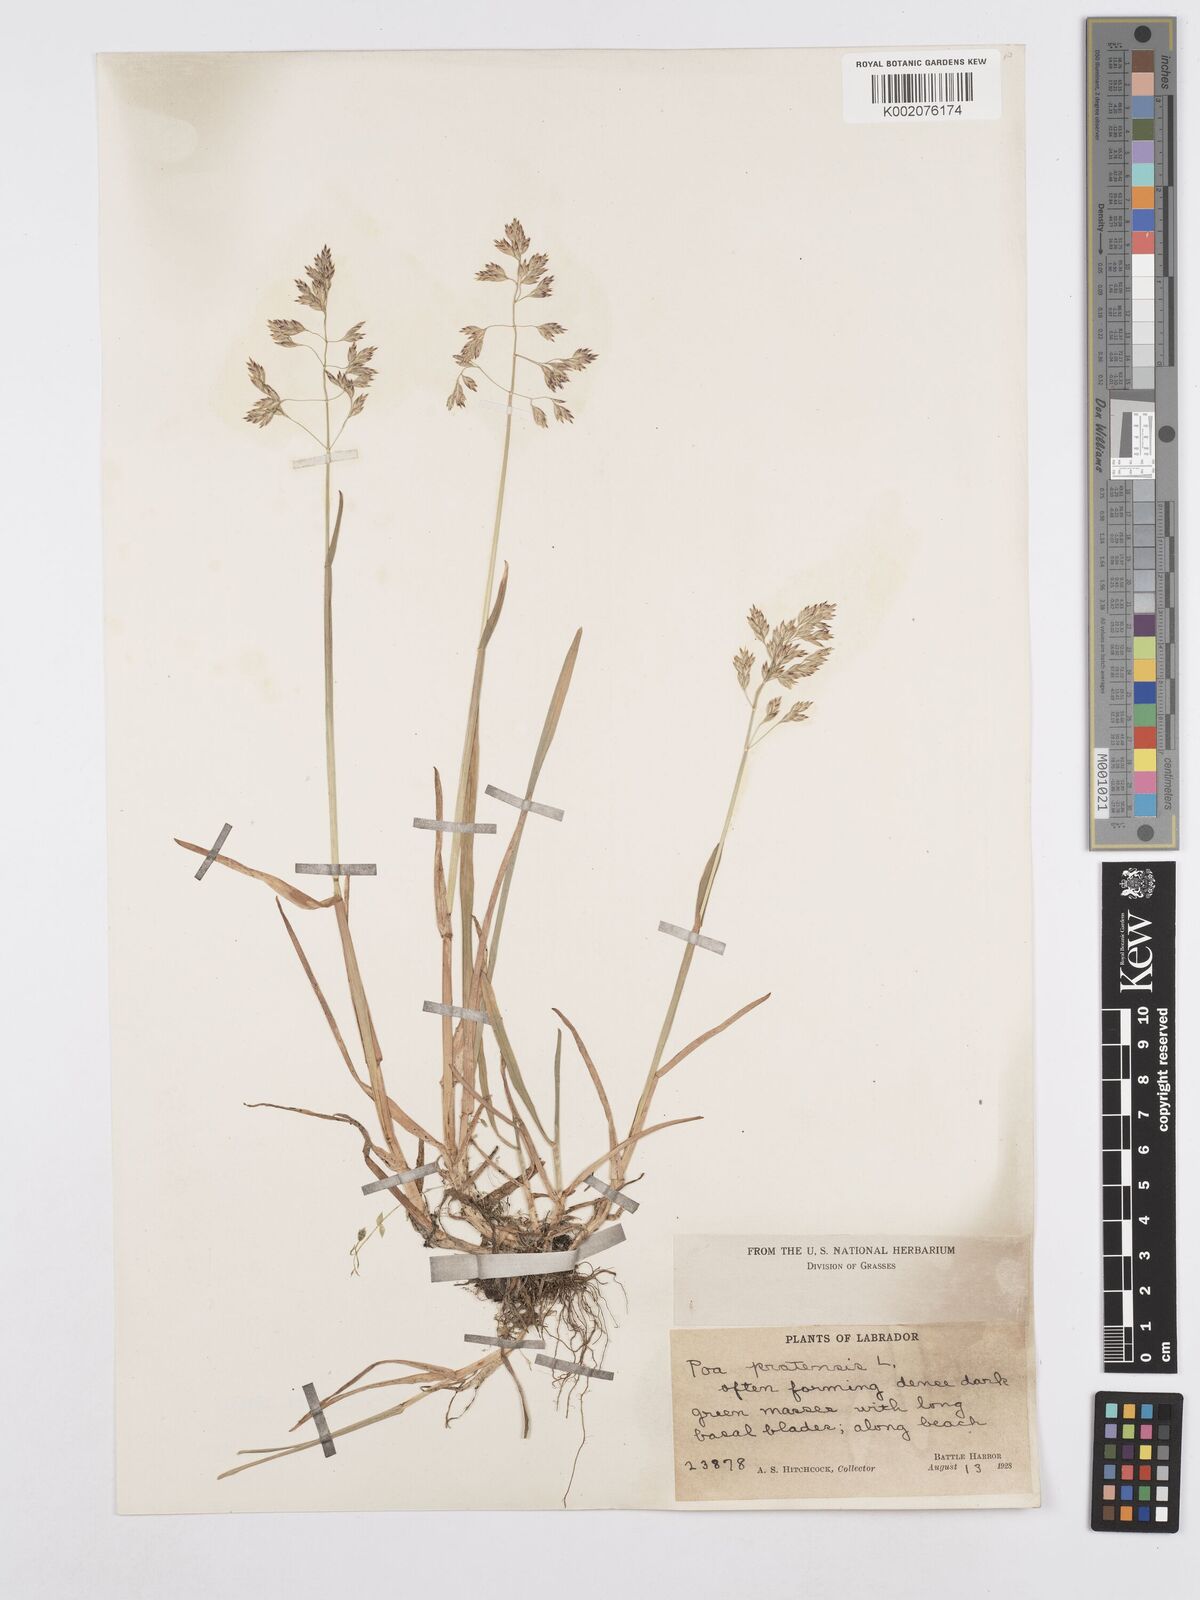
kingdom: Plantae
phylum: Tracheophyta
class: Liliopsida
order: Poales
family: Poaceae
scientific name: Poaceae
